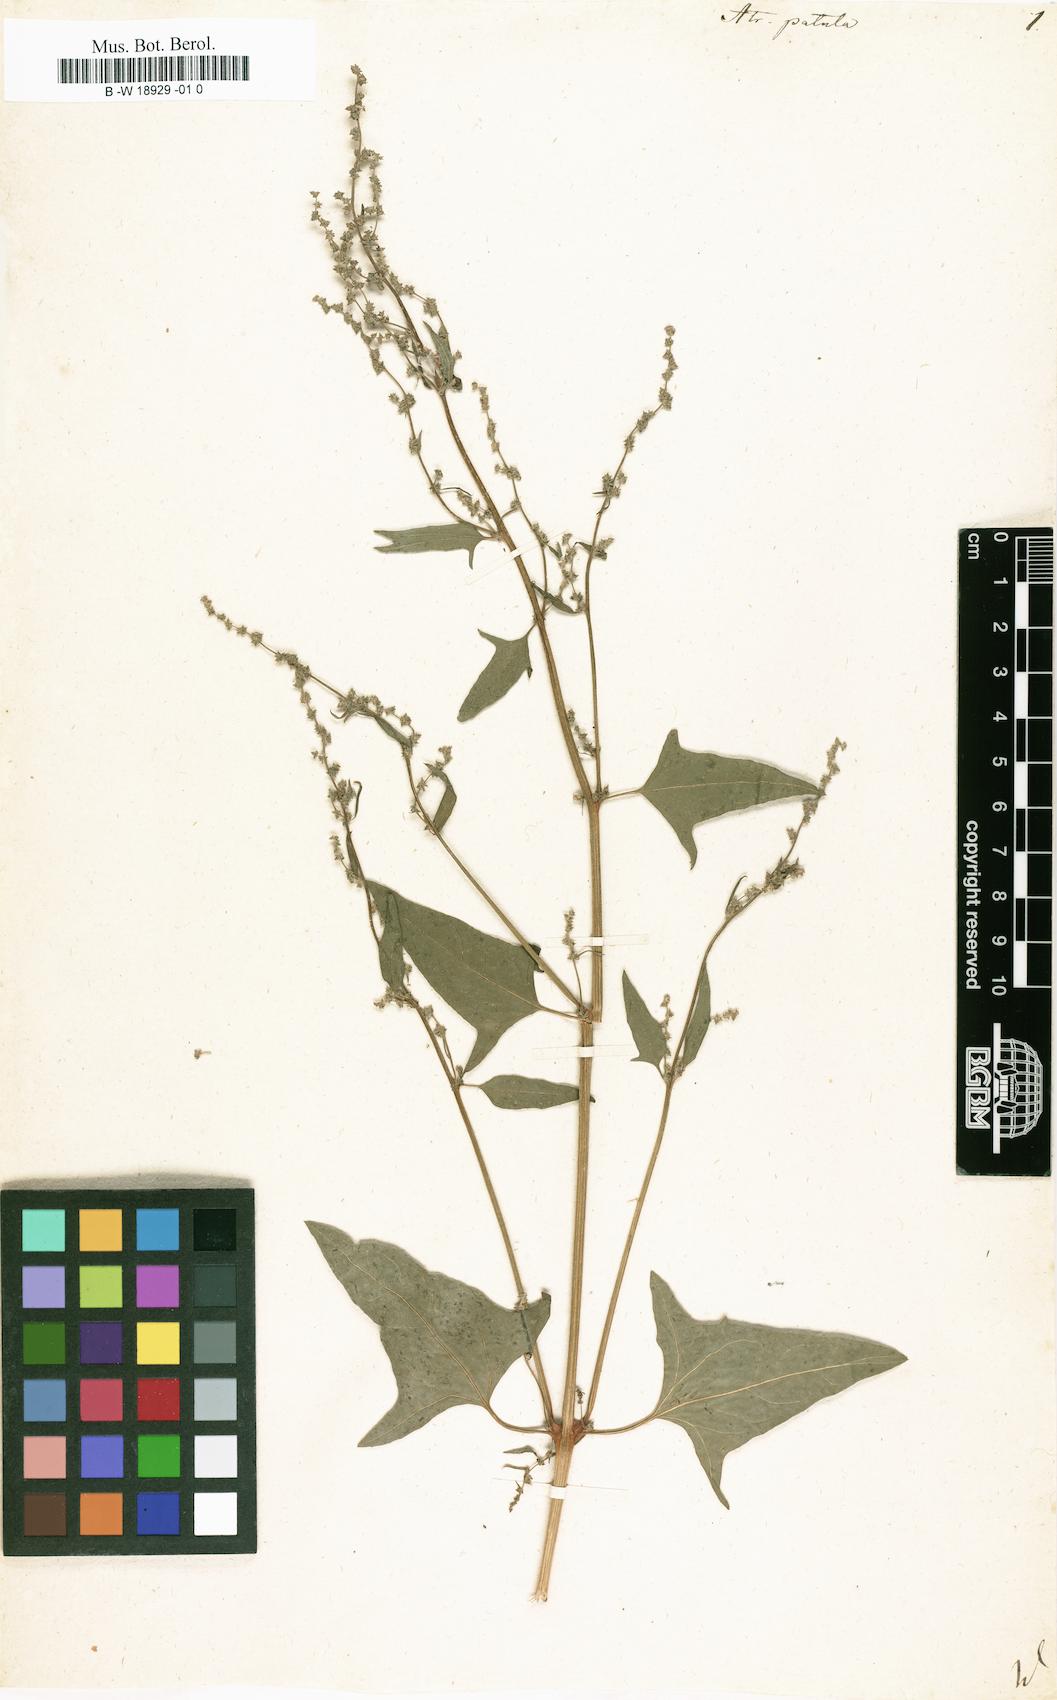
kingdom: Plantae
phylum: Tracheophyta
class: Magnoliopsida
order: Caryophyllales
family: Amaranthaceae
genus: Atriplex
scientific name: Atriplex patula
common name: Common orache
